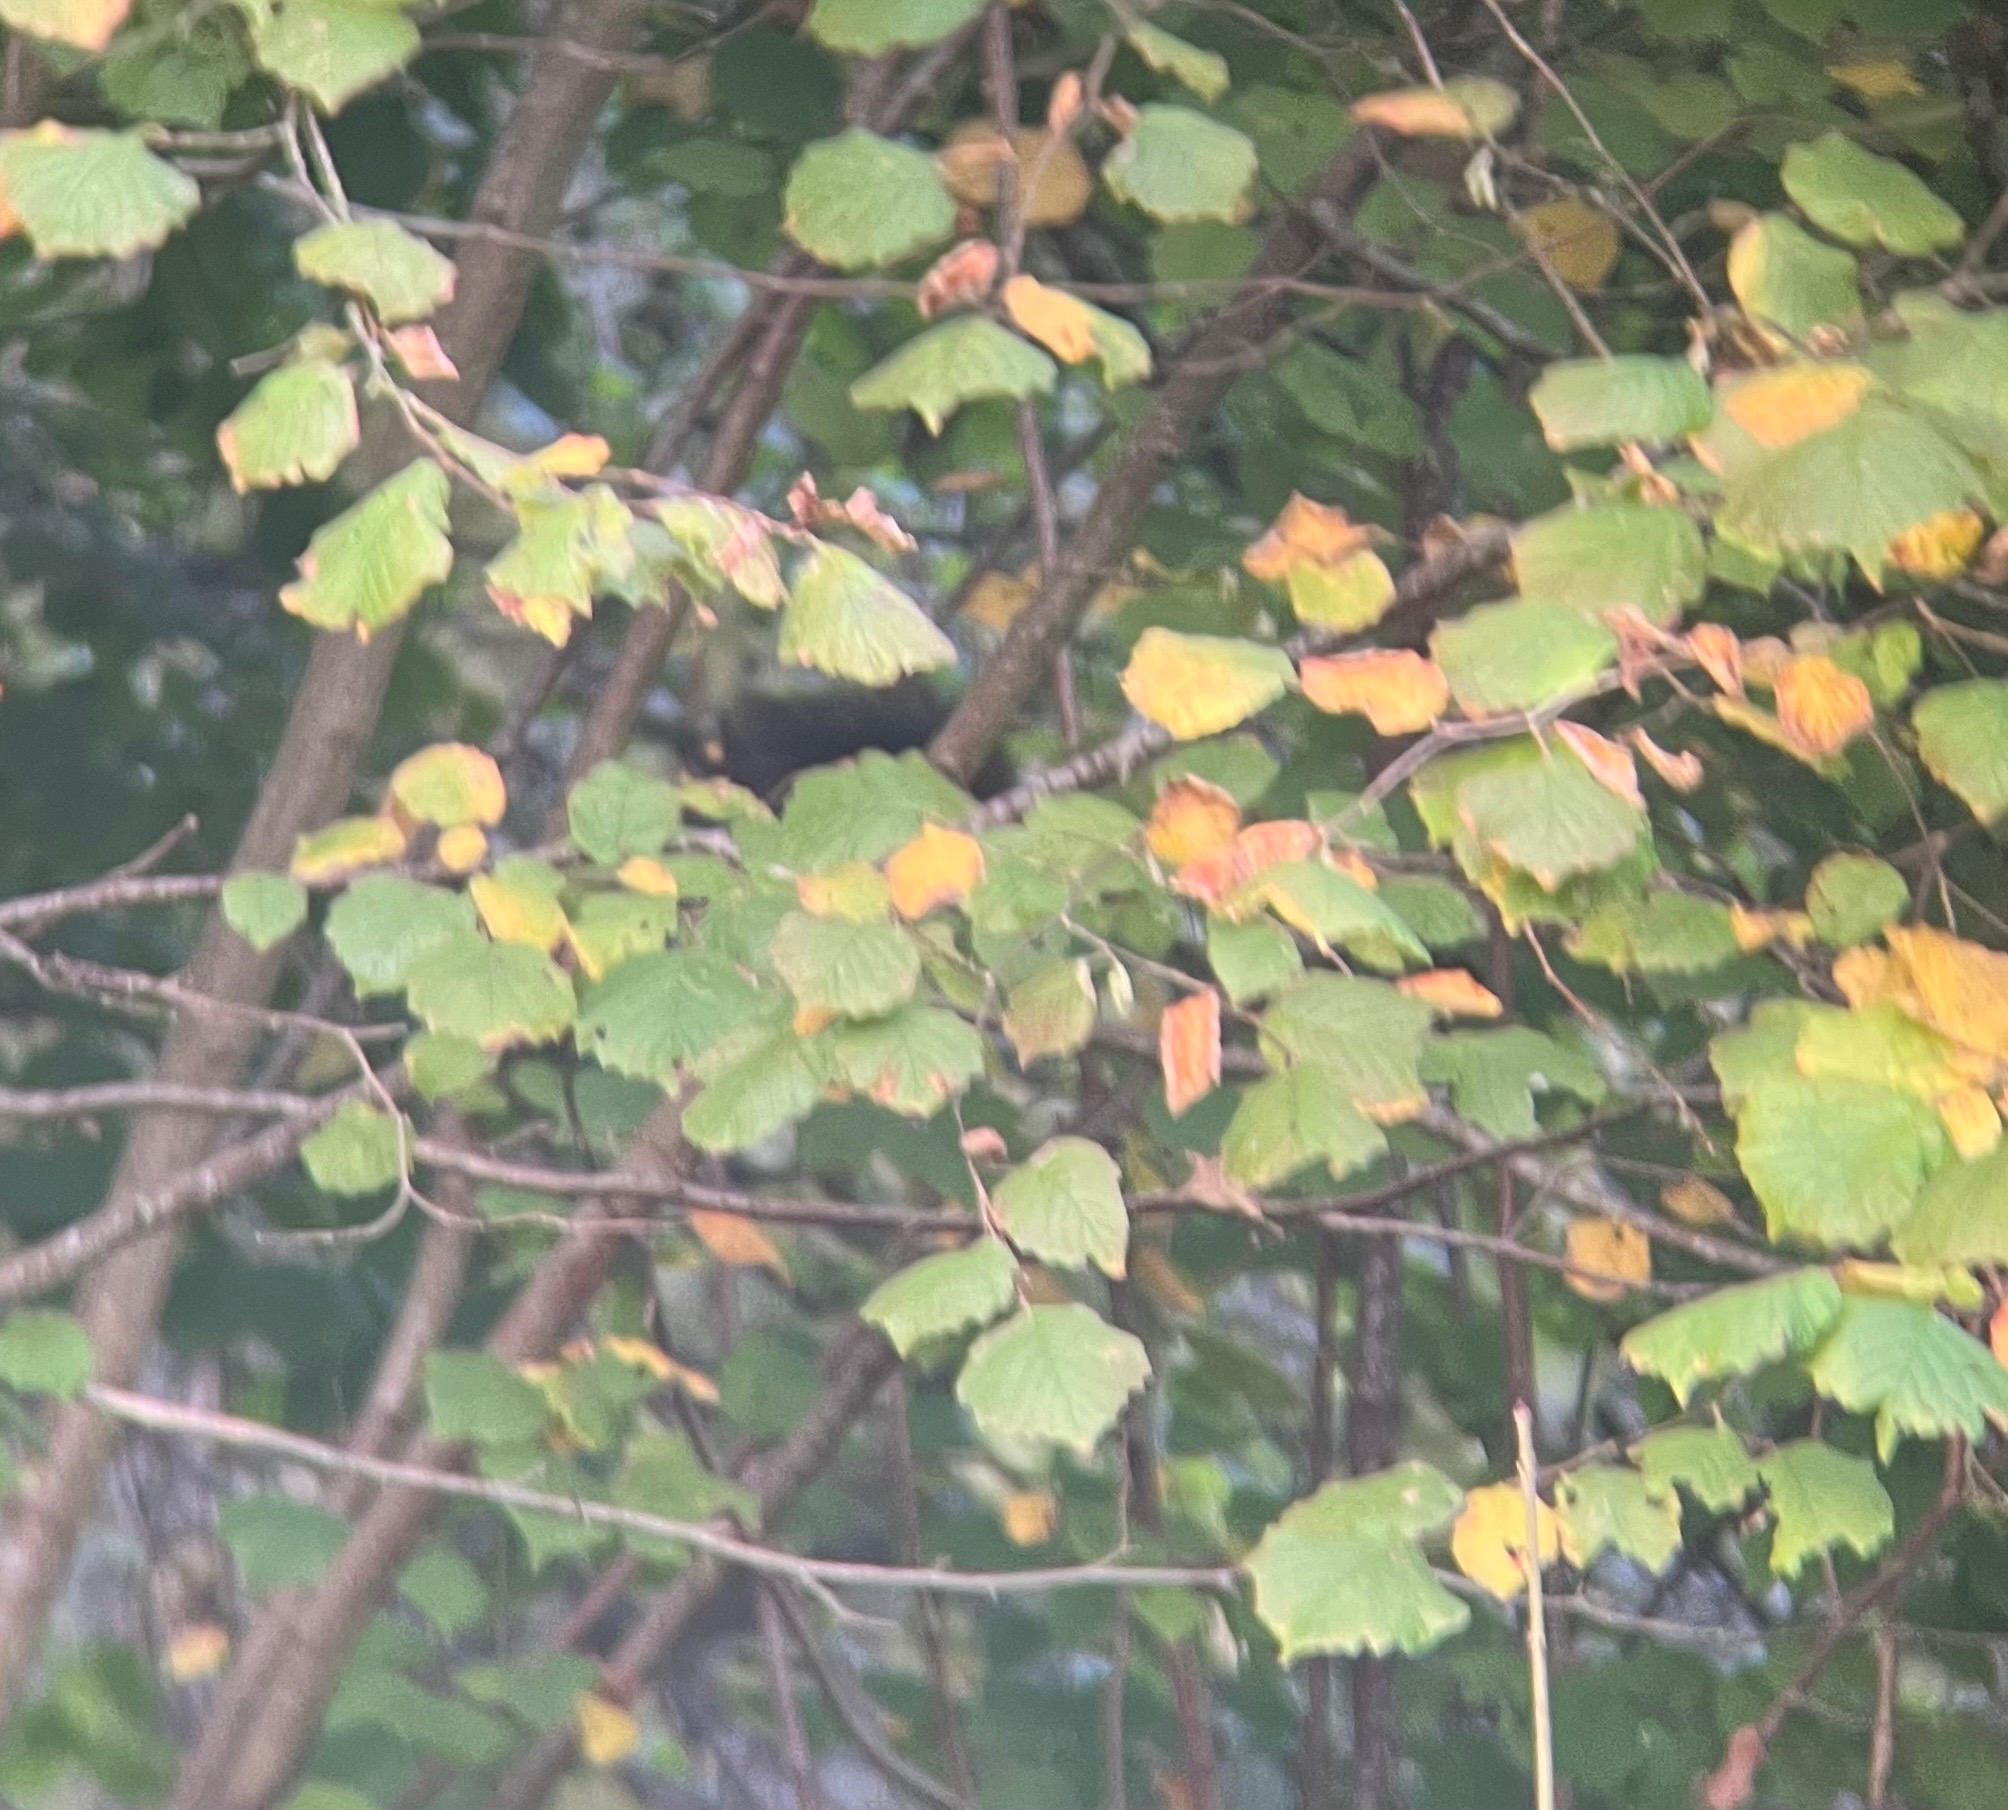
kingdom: Animalia
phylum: Chordata
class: Mammalia
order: Rodentia
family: Sciuridae
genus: Sciurus
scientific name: Sciurus vulgaris
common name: Egern
